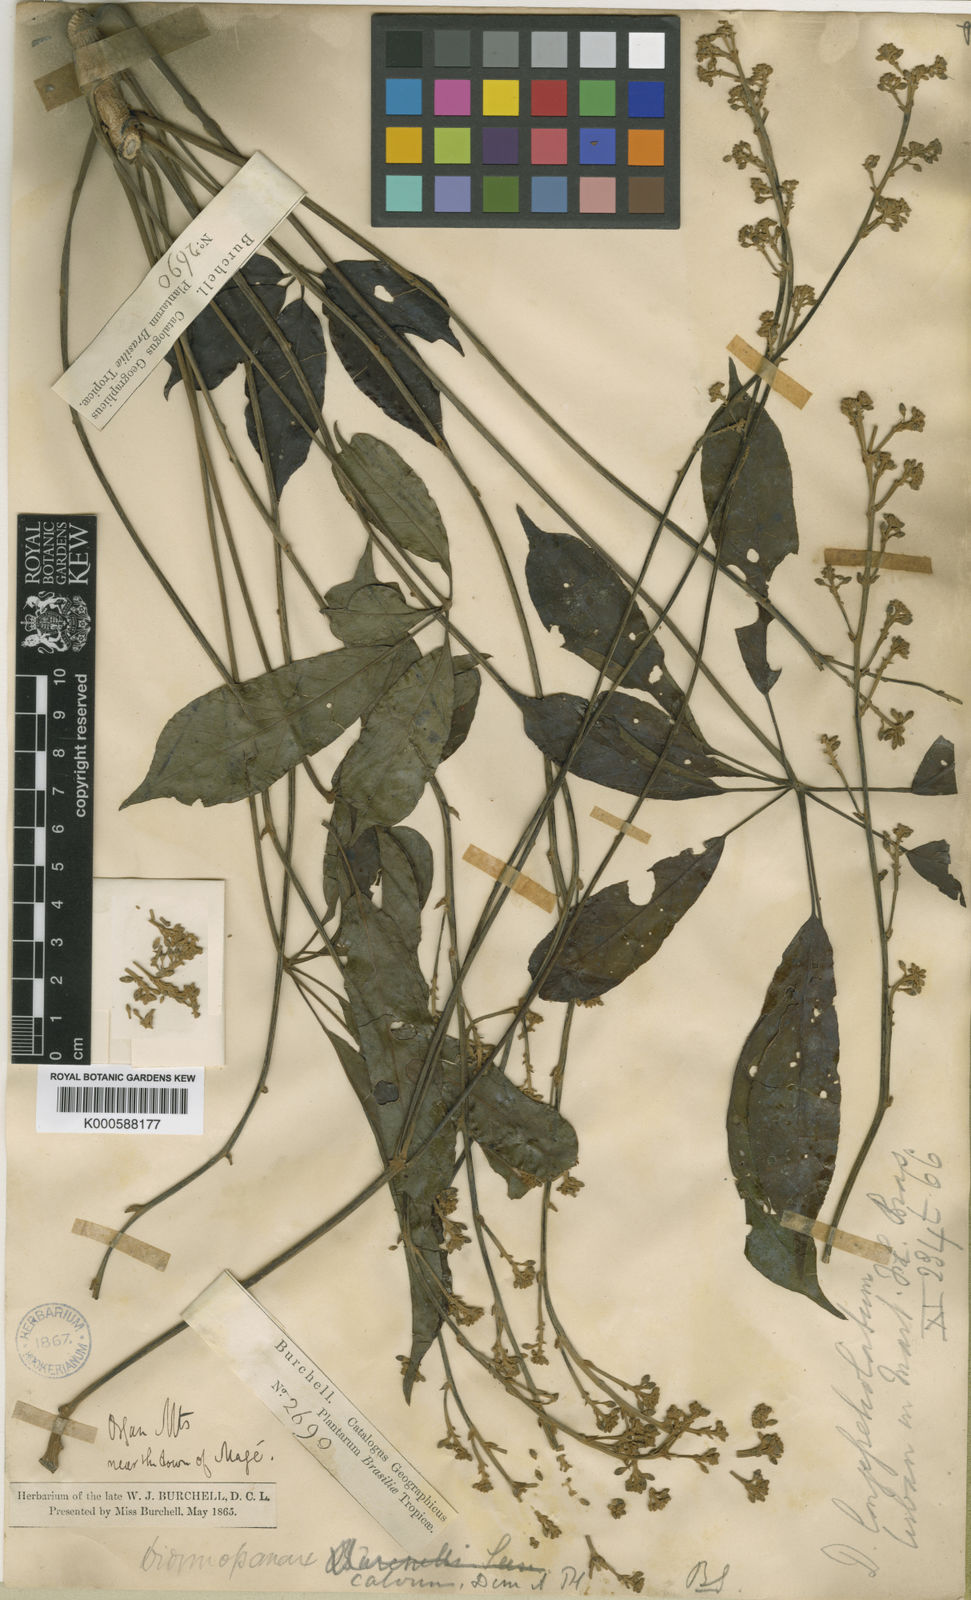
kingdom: Plantae
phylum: Tracheophyta
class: Magnoliopsida
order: Apiales
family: Araliaceae
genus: Schefflera
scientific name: Schefflera
